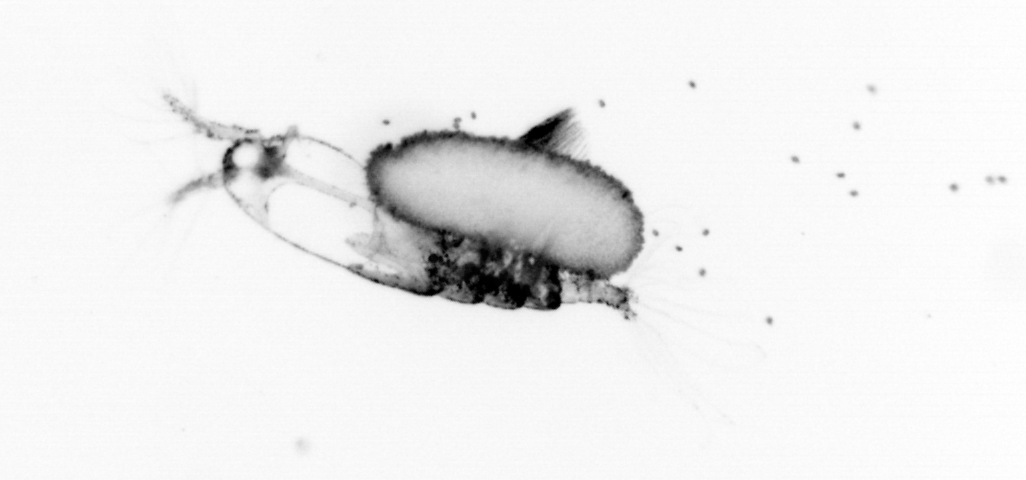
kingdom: Animalia
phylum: Arthropoda
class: Copepoda
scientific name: Copepoda
